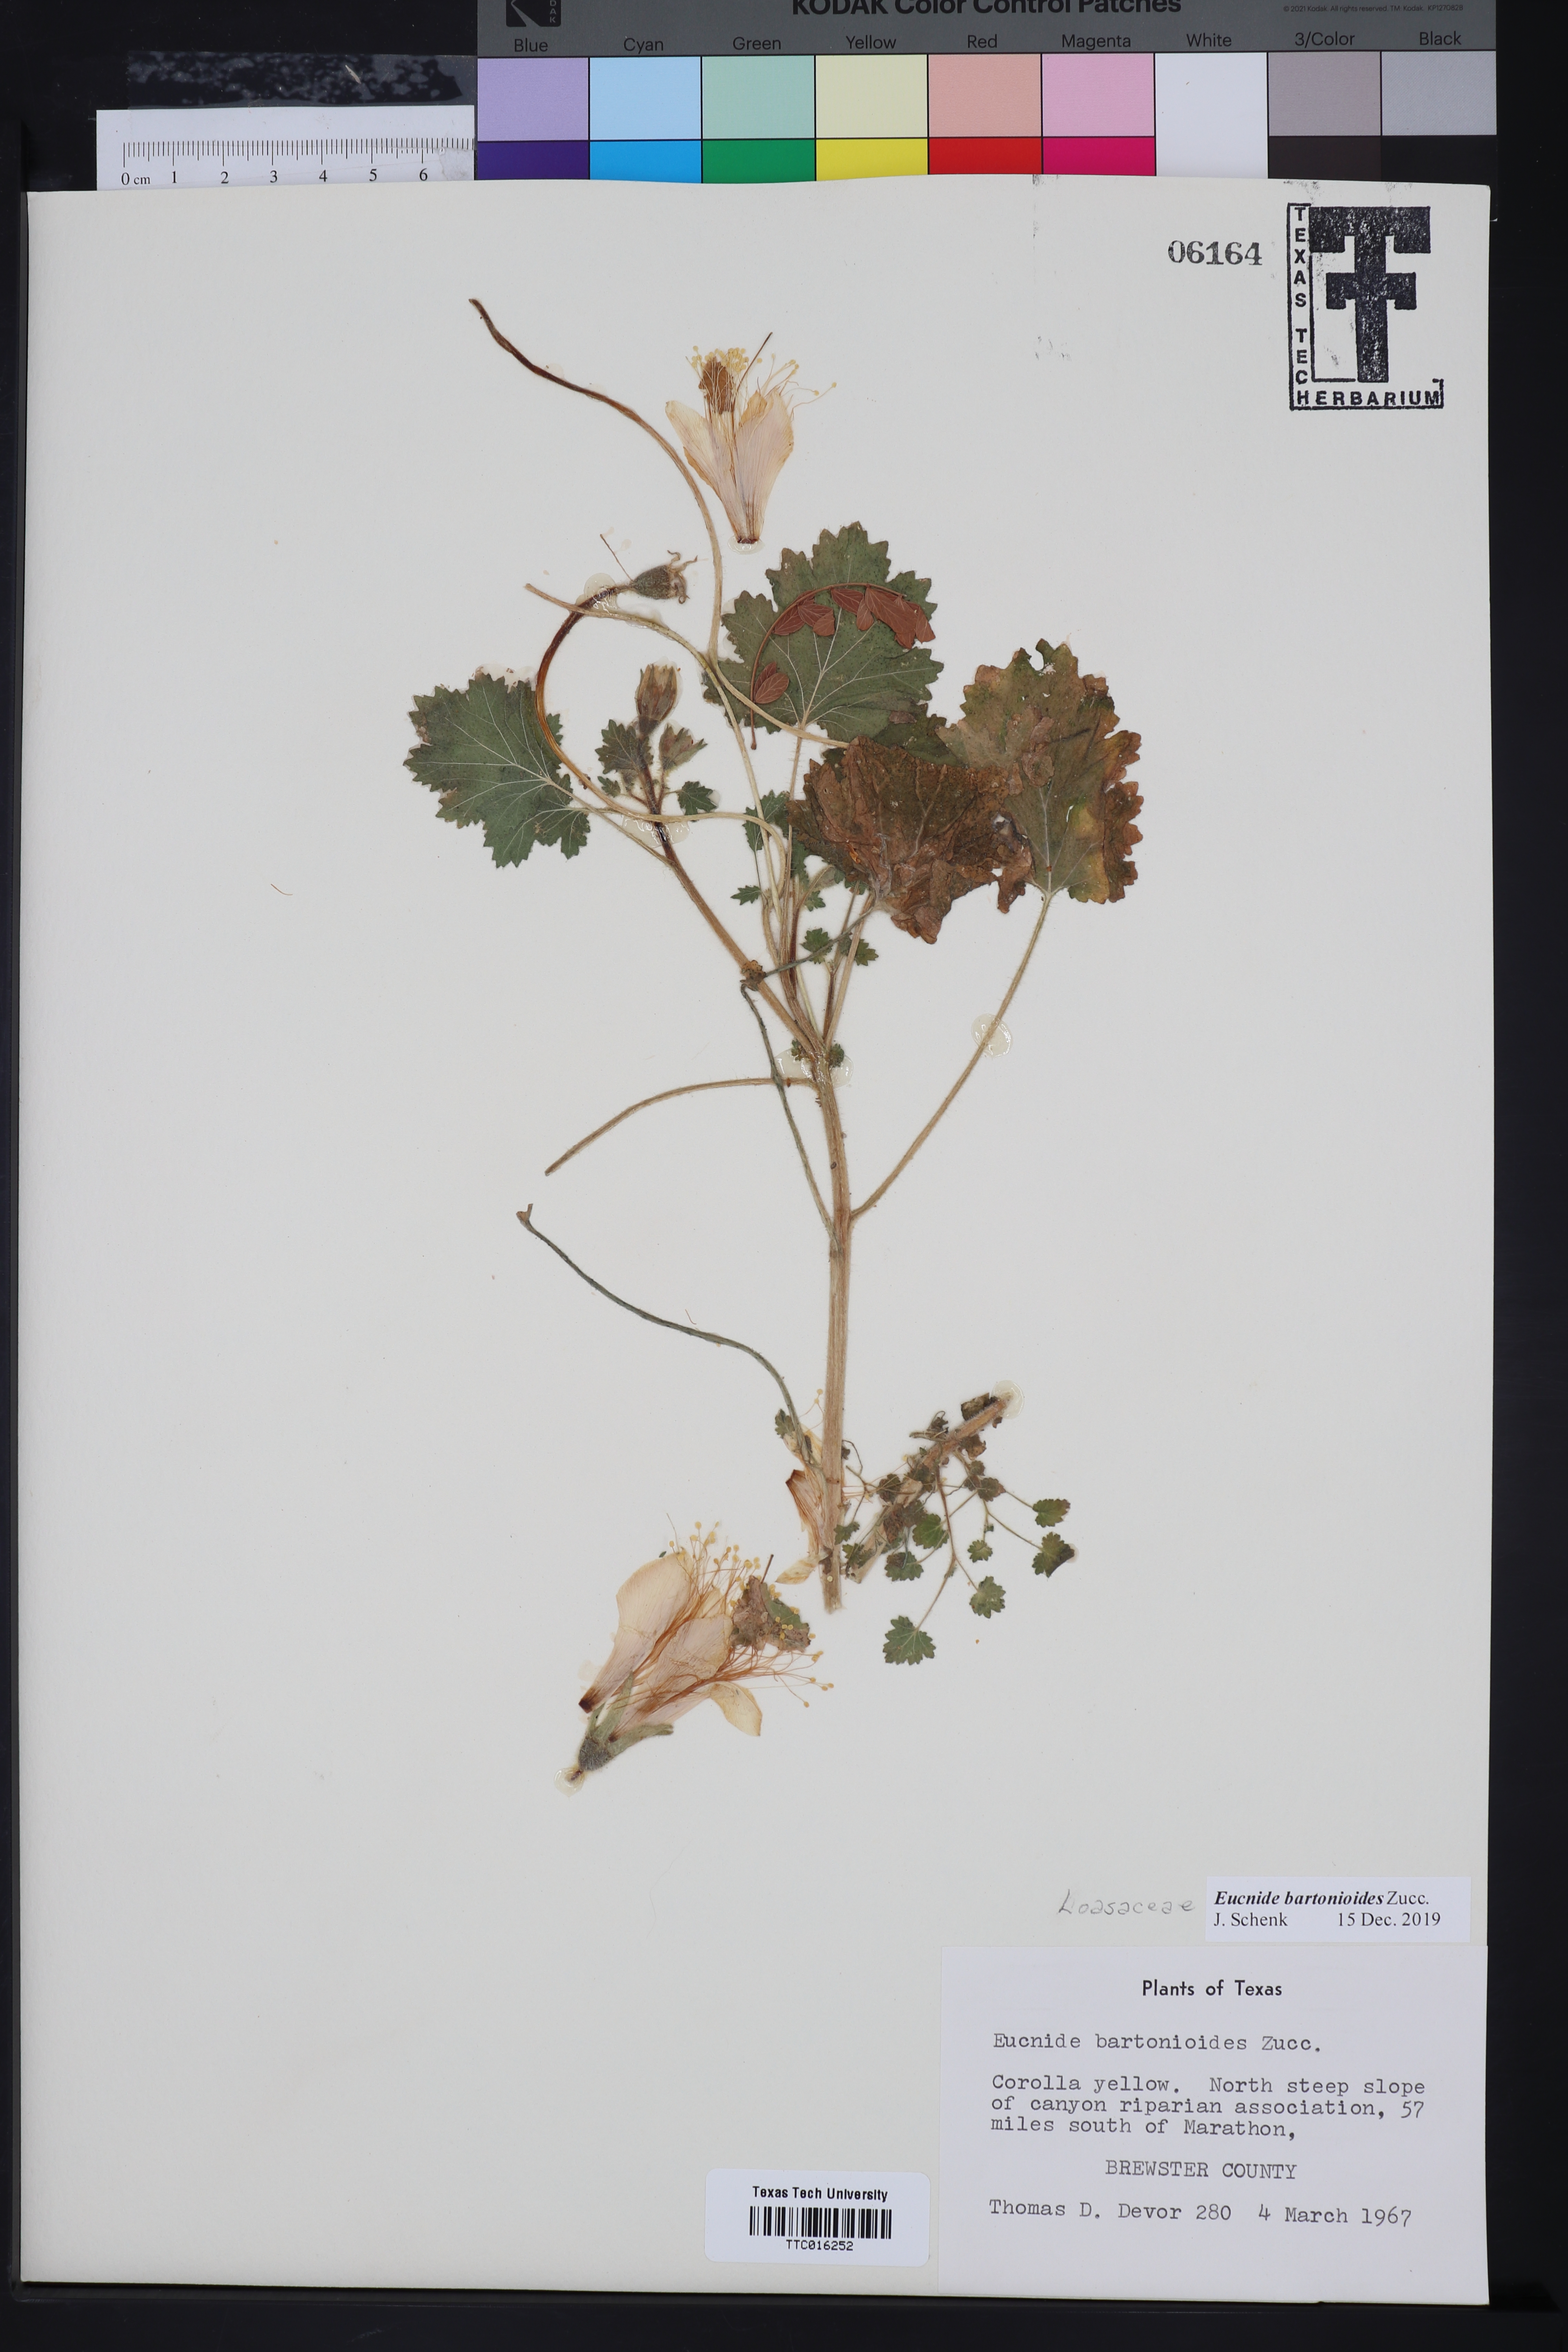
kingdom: Plantae
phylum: Tracheophyta
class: Magnoliopsida
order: Cornales
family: Loasaceae
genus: Eucnide
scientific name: Eucnide bartonioides
